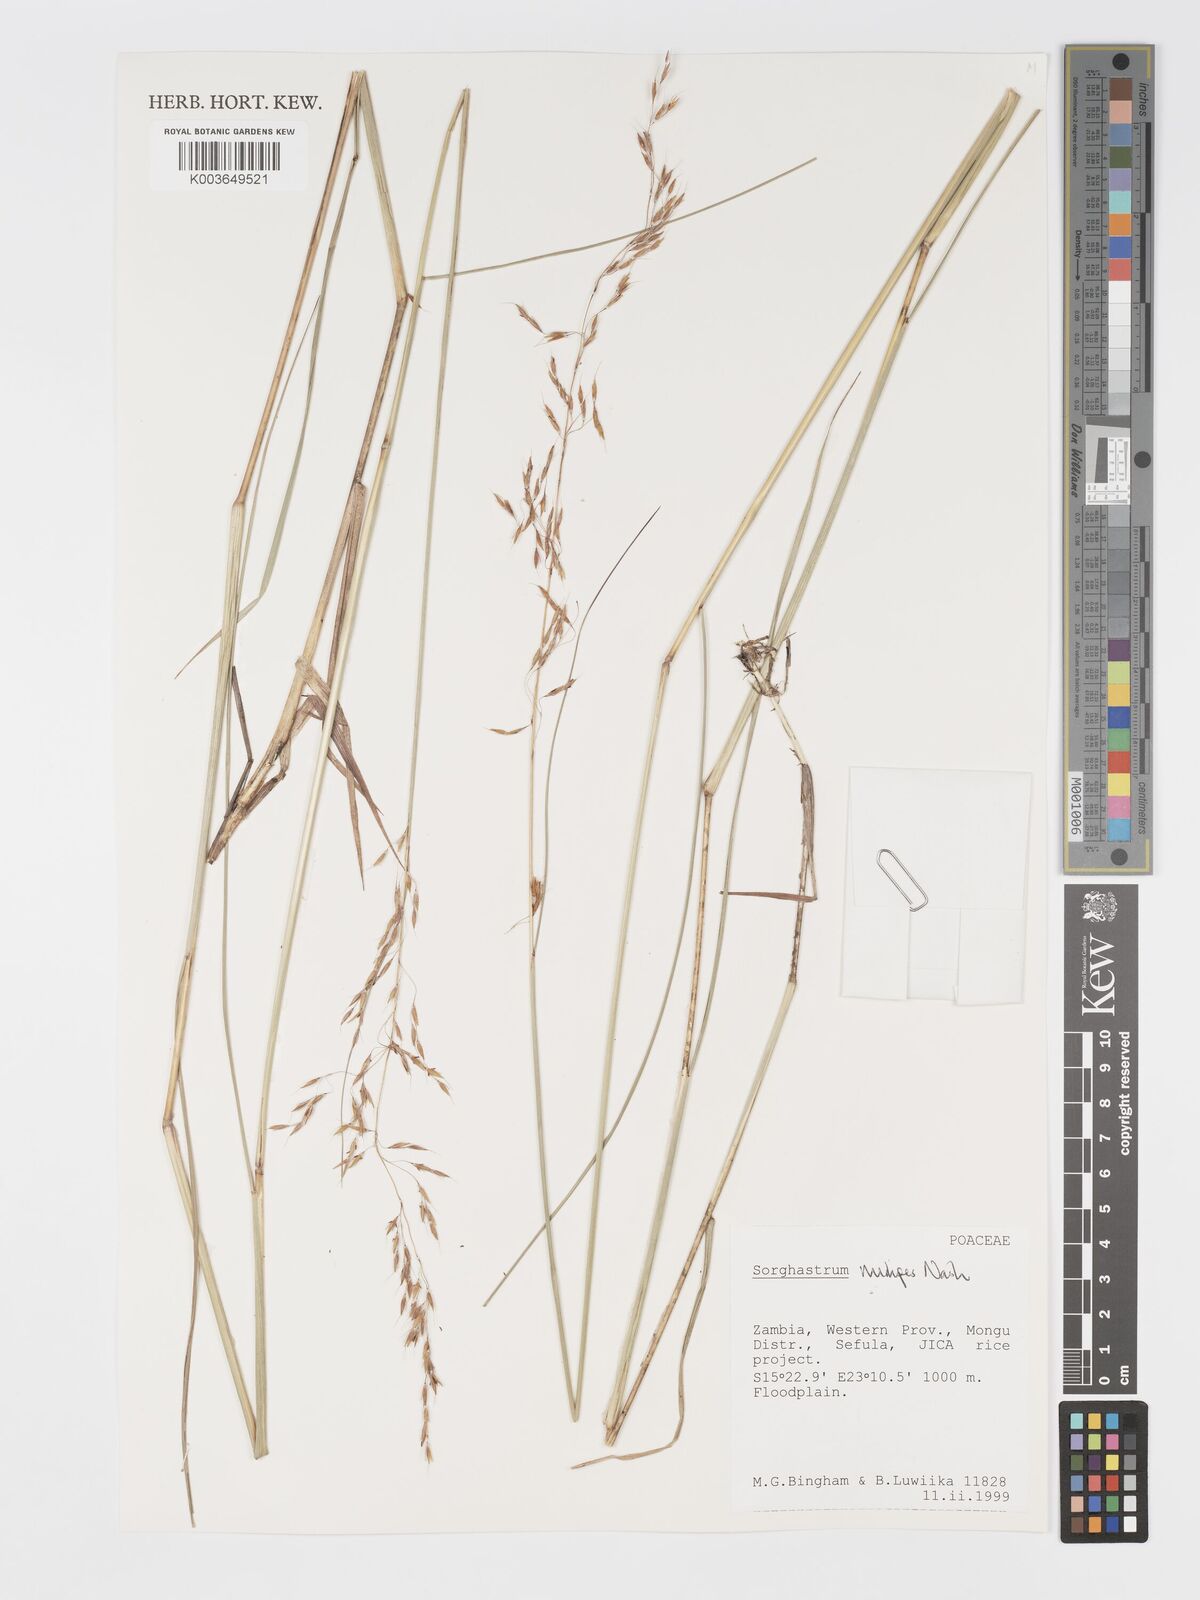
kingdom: Plantae
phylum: Tracheophyta
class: Liliopsida
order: Poales
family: Poaceae
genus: Sorghastrum
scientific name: Sorghastrum nudipes
